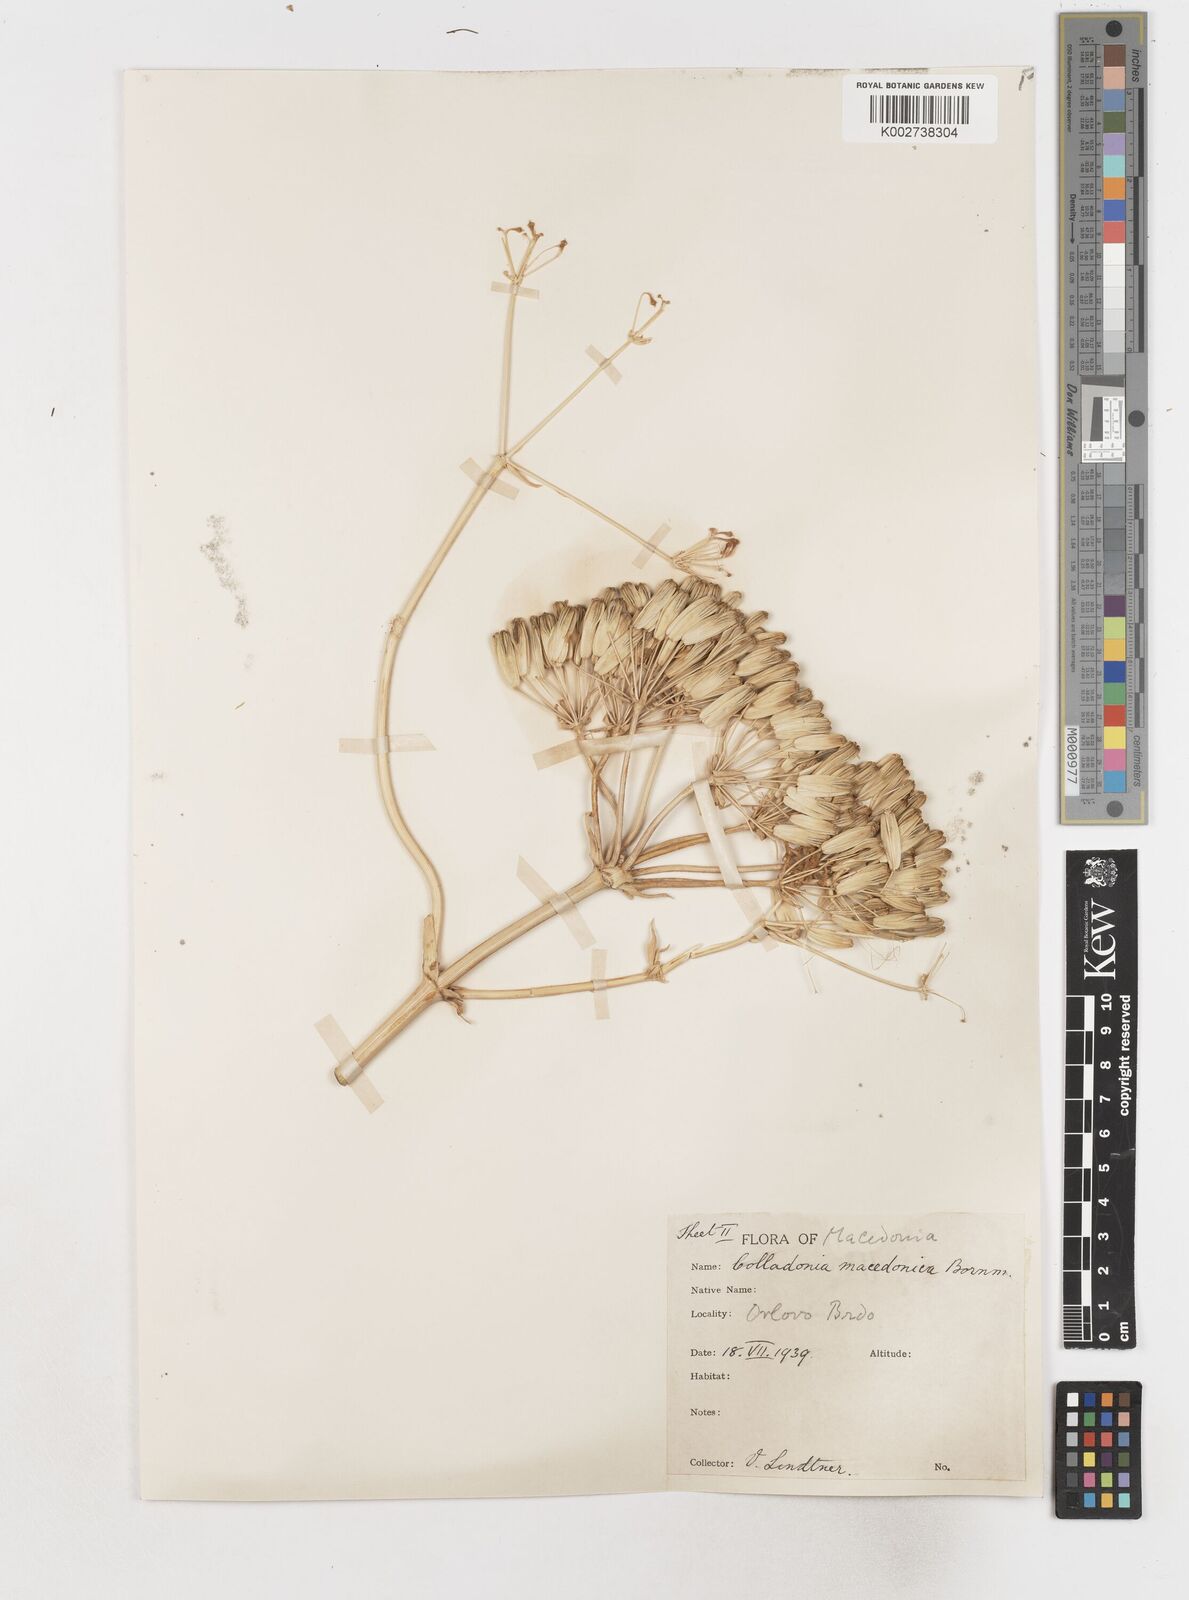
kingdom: Plantae
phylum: Tracheophyta
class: Magnoliopsida
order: Apiales
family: Apiaceae
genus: Heptaptera
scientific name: Heptaptera macedonica
